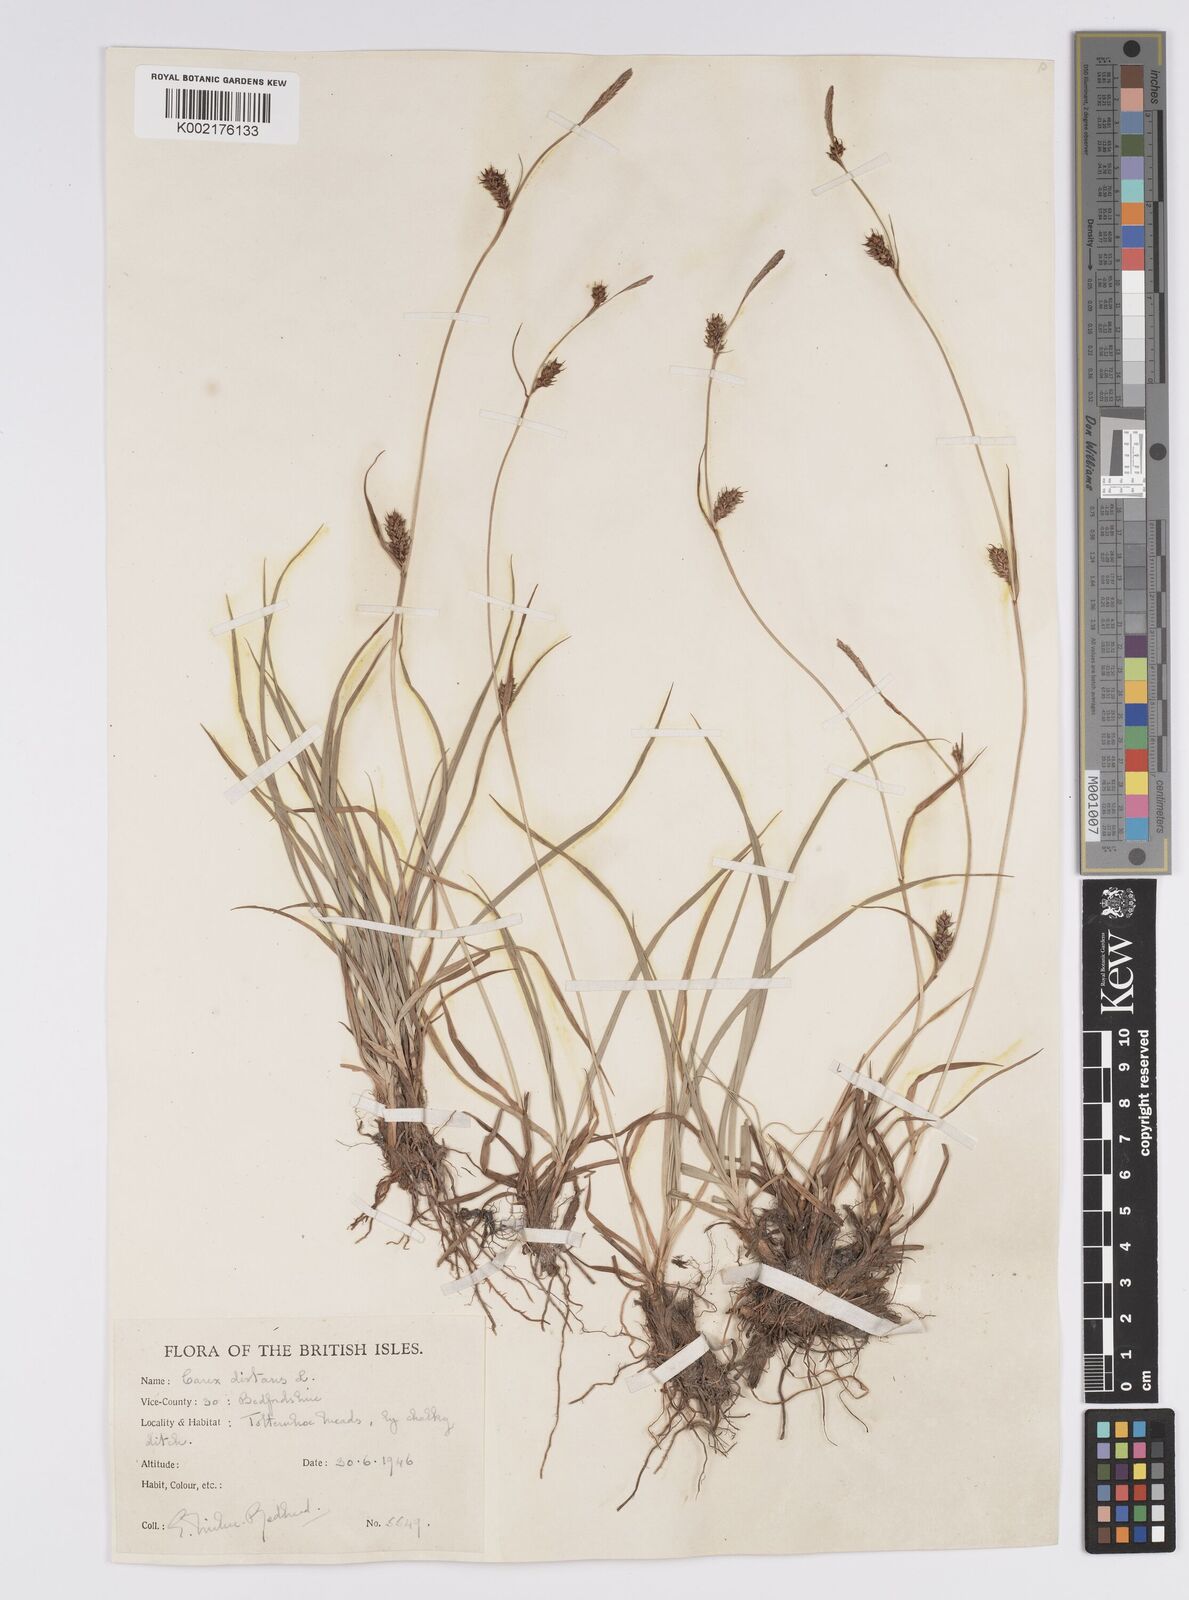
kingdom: Plantae
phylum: Tracheophyta
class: Liliopsida
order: Poales
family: Cyperaceae
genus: Carex
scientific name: Carex distans
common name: Distant sedge
